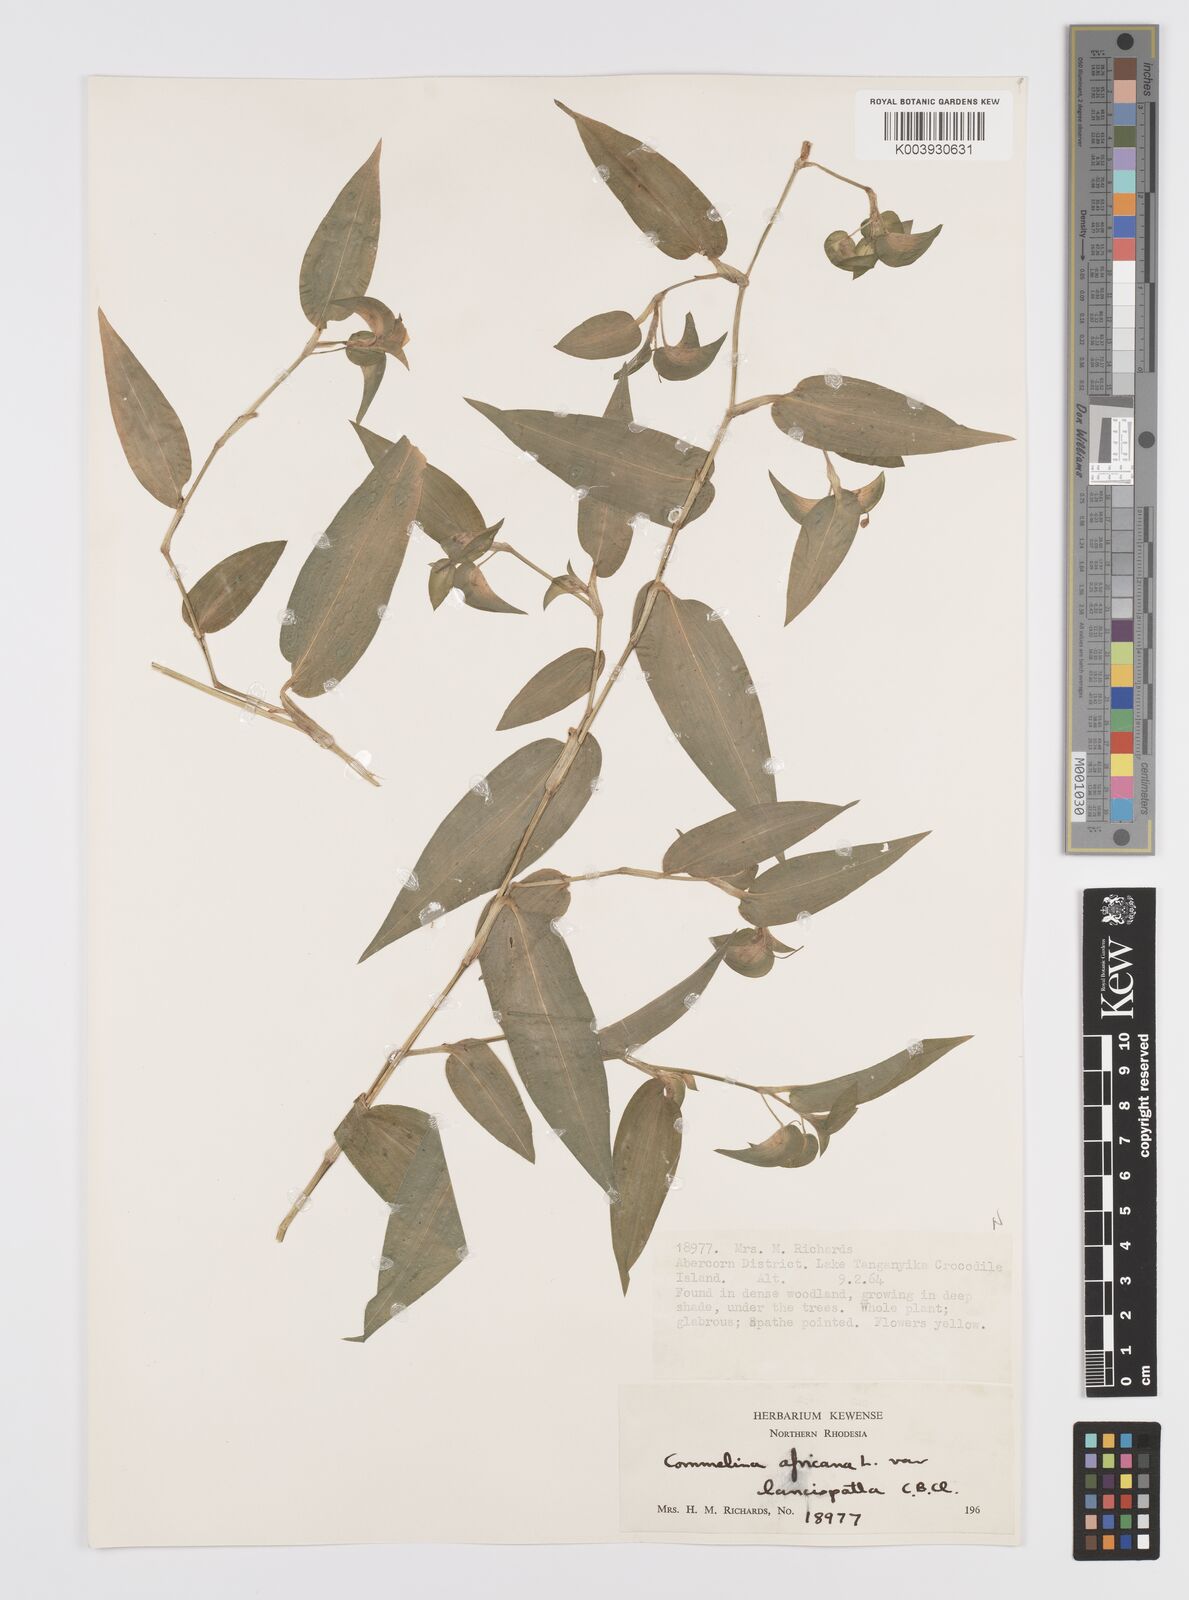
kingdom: Plantae
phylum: Tracheophyta
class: Liliopsida
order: Commelinales
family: Commelinaceae
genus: Commelina
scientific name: Commelina africana
